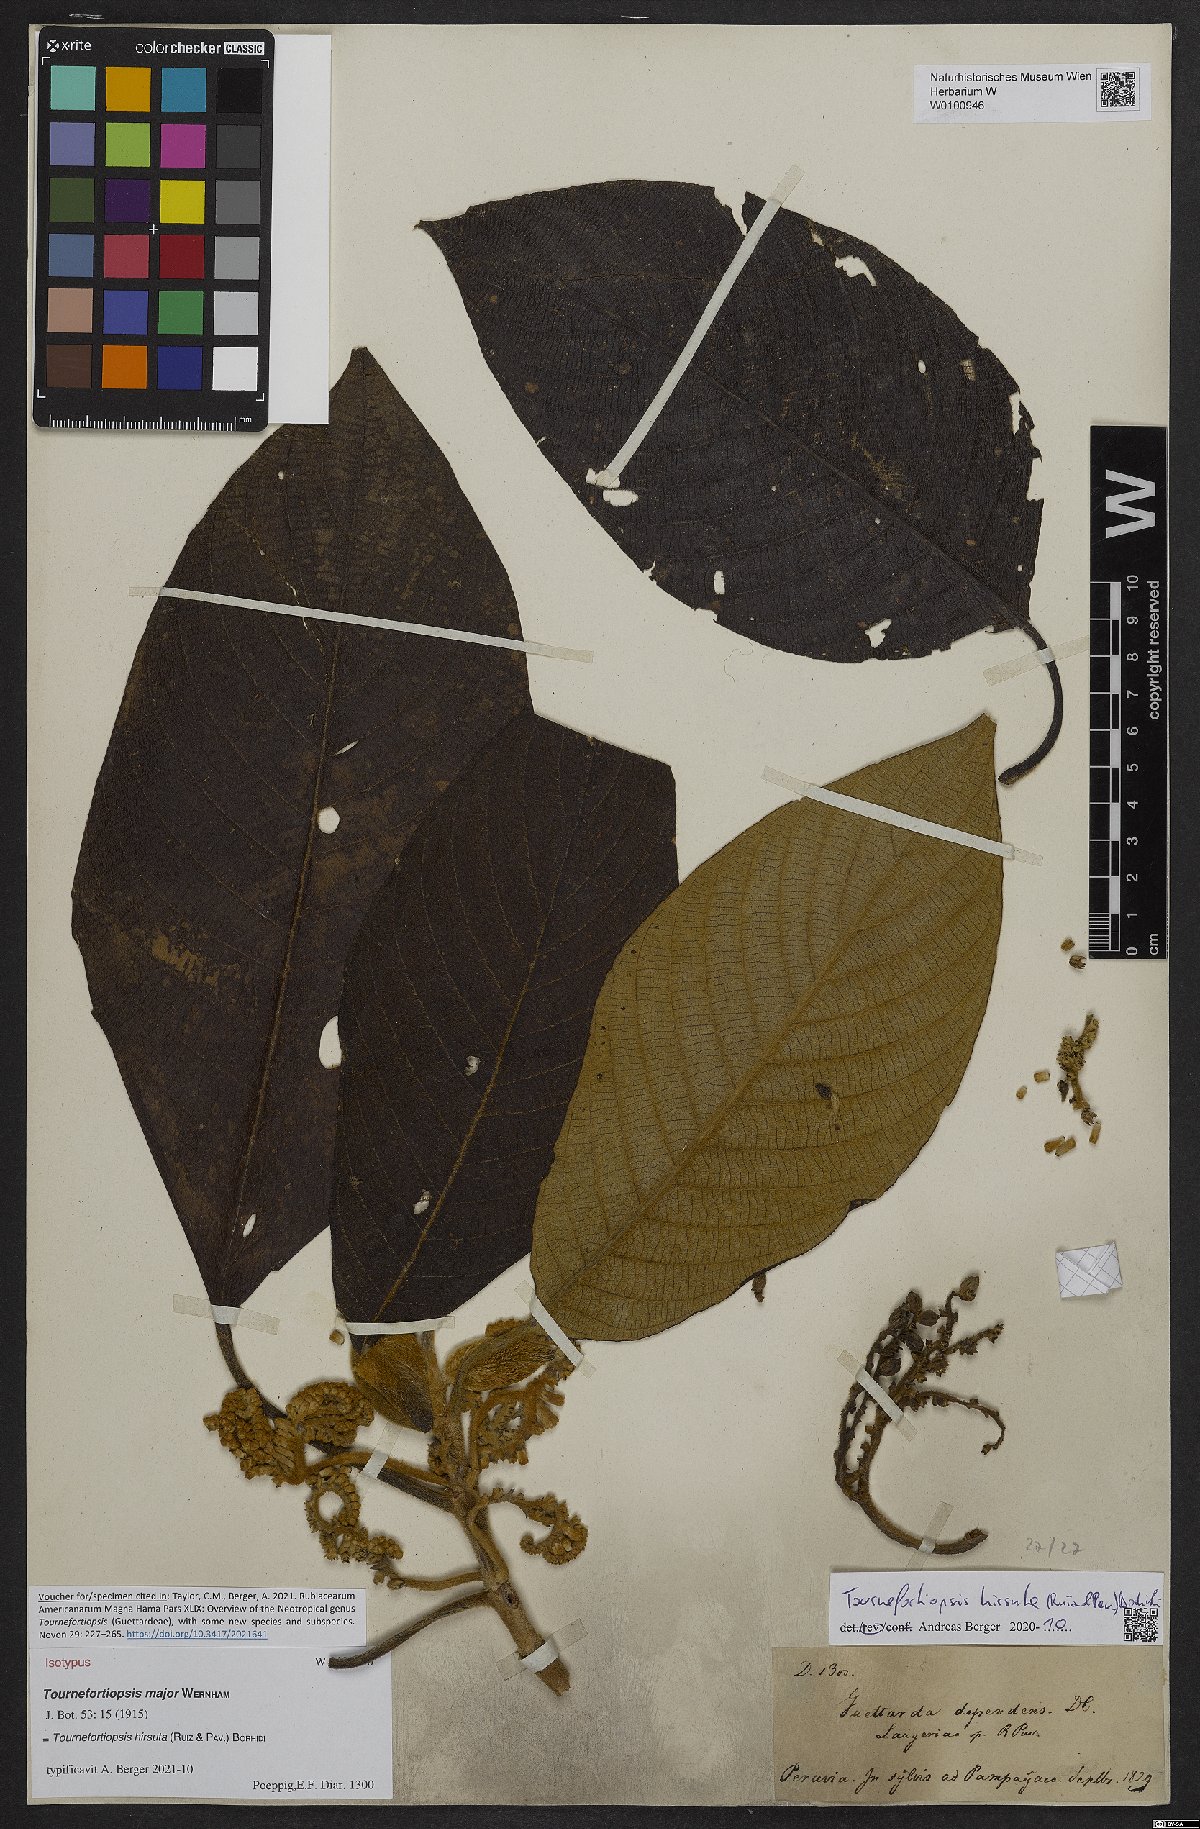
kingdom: Plantae
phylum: Tracheophyta
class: Magnoliopsida
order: Gentianales
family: Rubiaceae
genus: Tournefortiopsis
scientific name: Tournefortiopsis hirsuta
